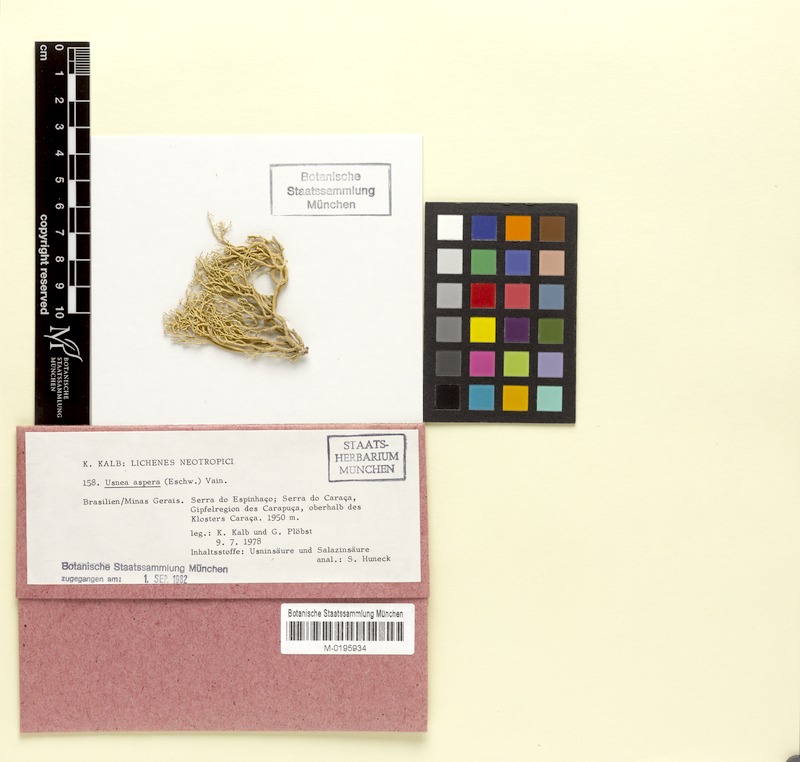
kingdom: Fungi
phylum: Ascomycota
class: Lecanoromycetes
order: Lecanorales
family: Parmeliaceae
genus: Usnea
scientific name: Usnea aspera
